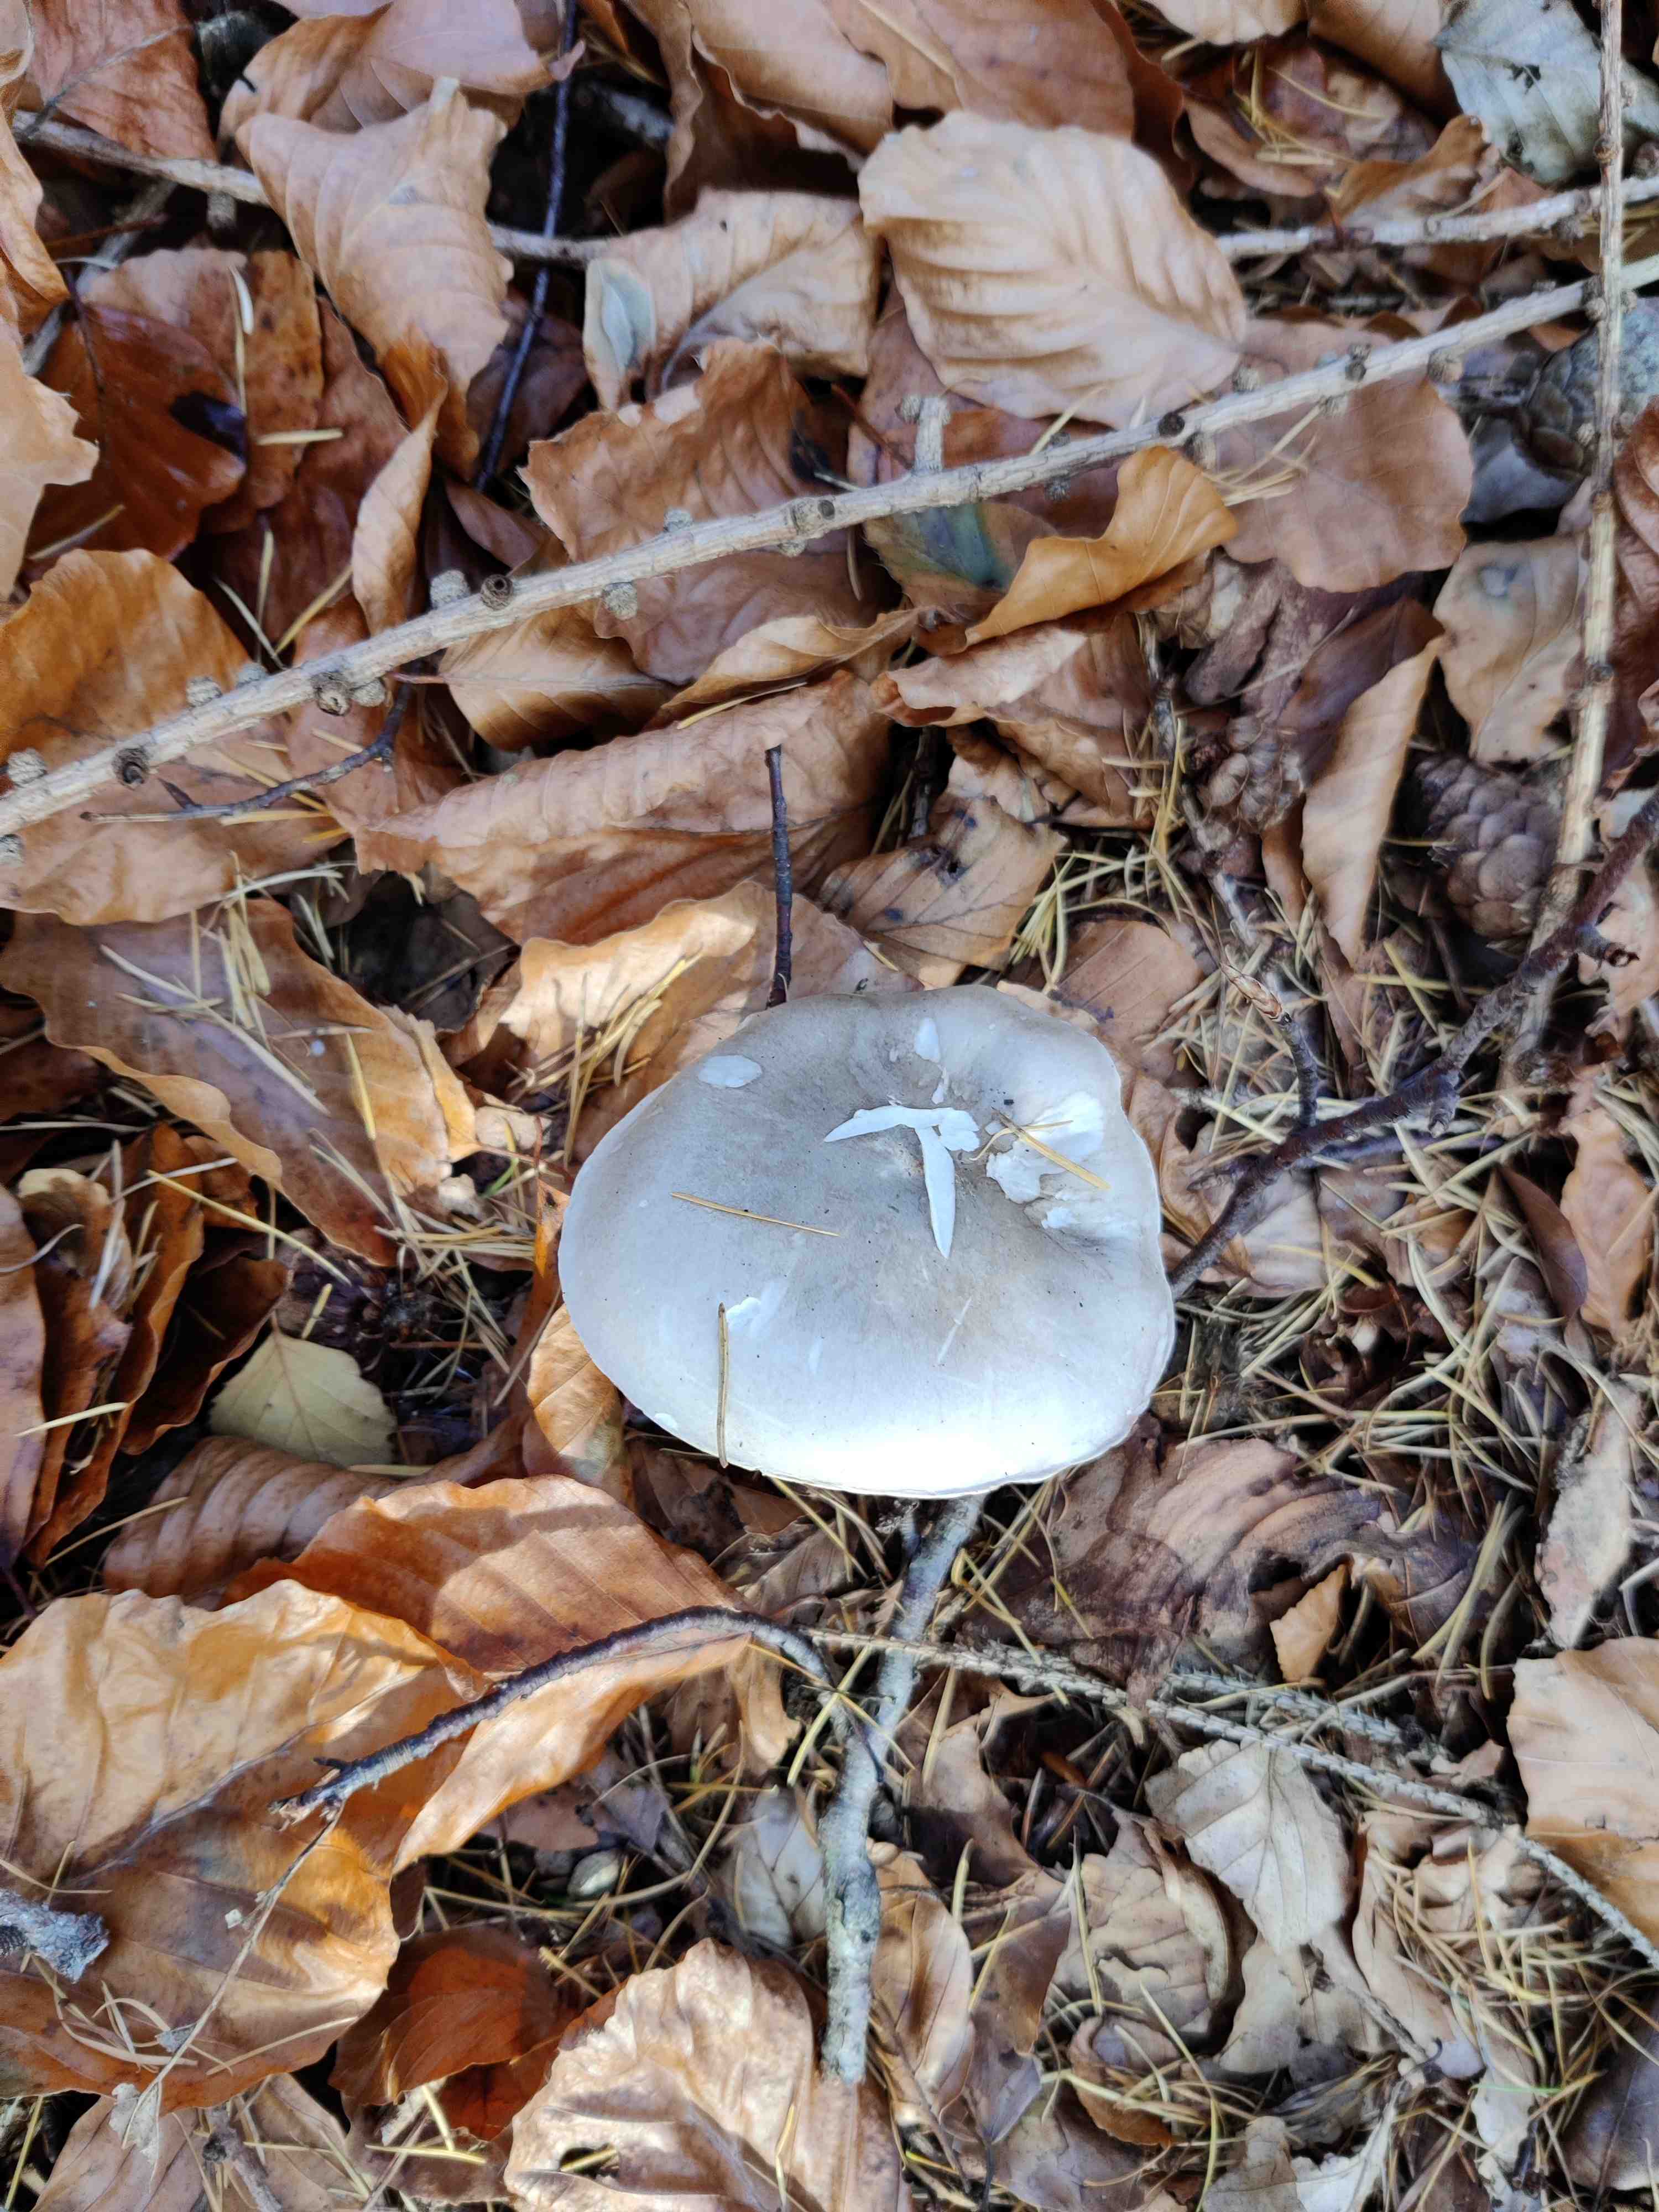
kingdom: Fungi
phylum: Basidiomycota
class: Agaricomycetes
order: Agaricales
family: Tricholomataceae
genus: Clitocybe
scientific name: Clitocybe nebularis
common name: tåge-tragthat
